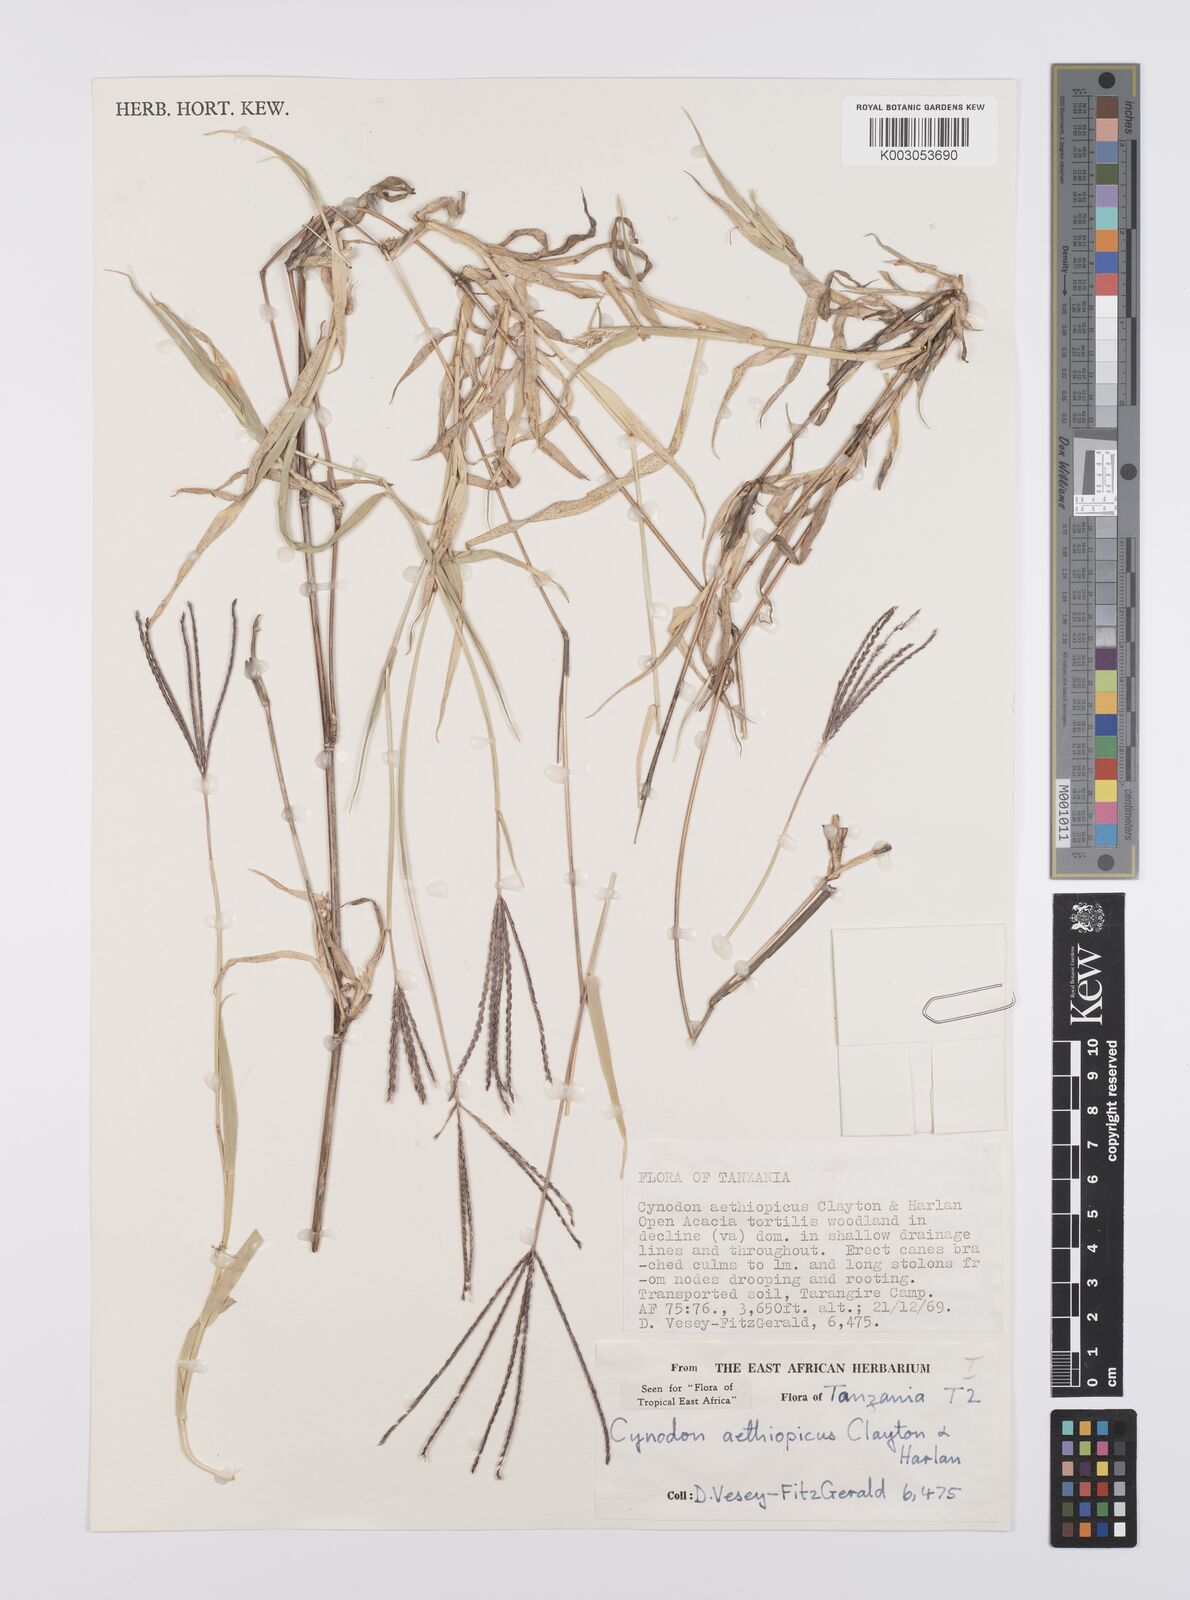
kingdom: Plantae
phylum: Tracheophyta
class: Liliopsida
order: Poales
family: Poaceae
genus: Cynodon
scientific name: Cynodon aethiopicus
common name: Ethiopian dogstooth grass
